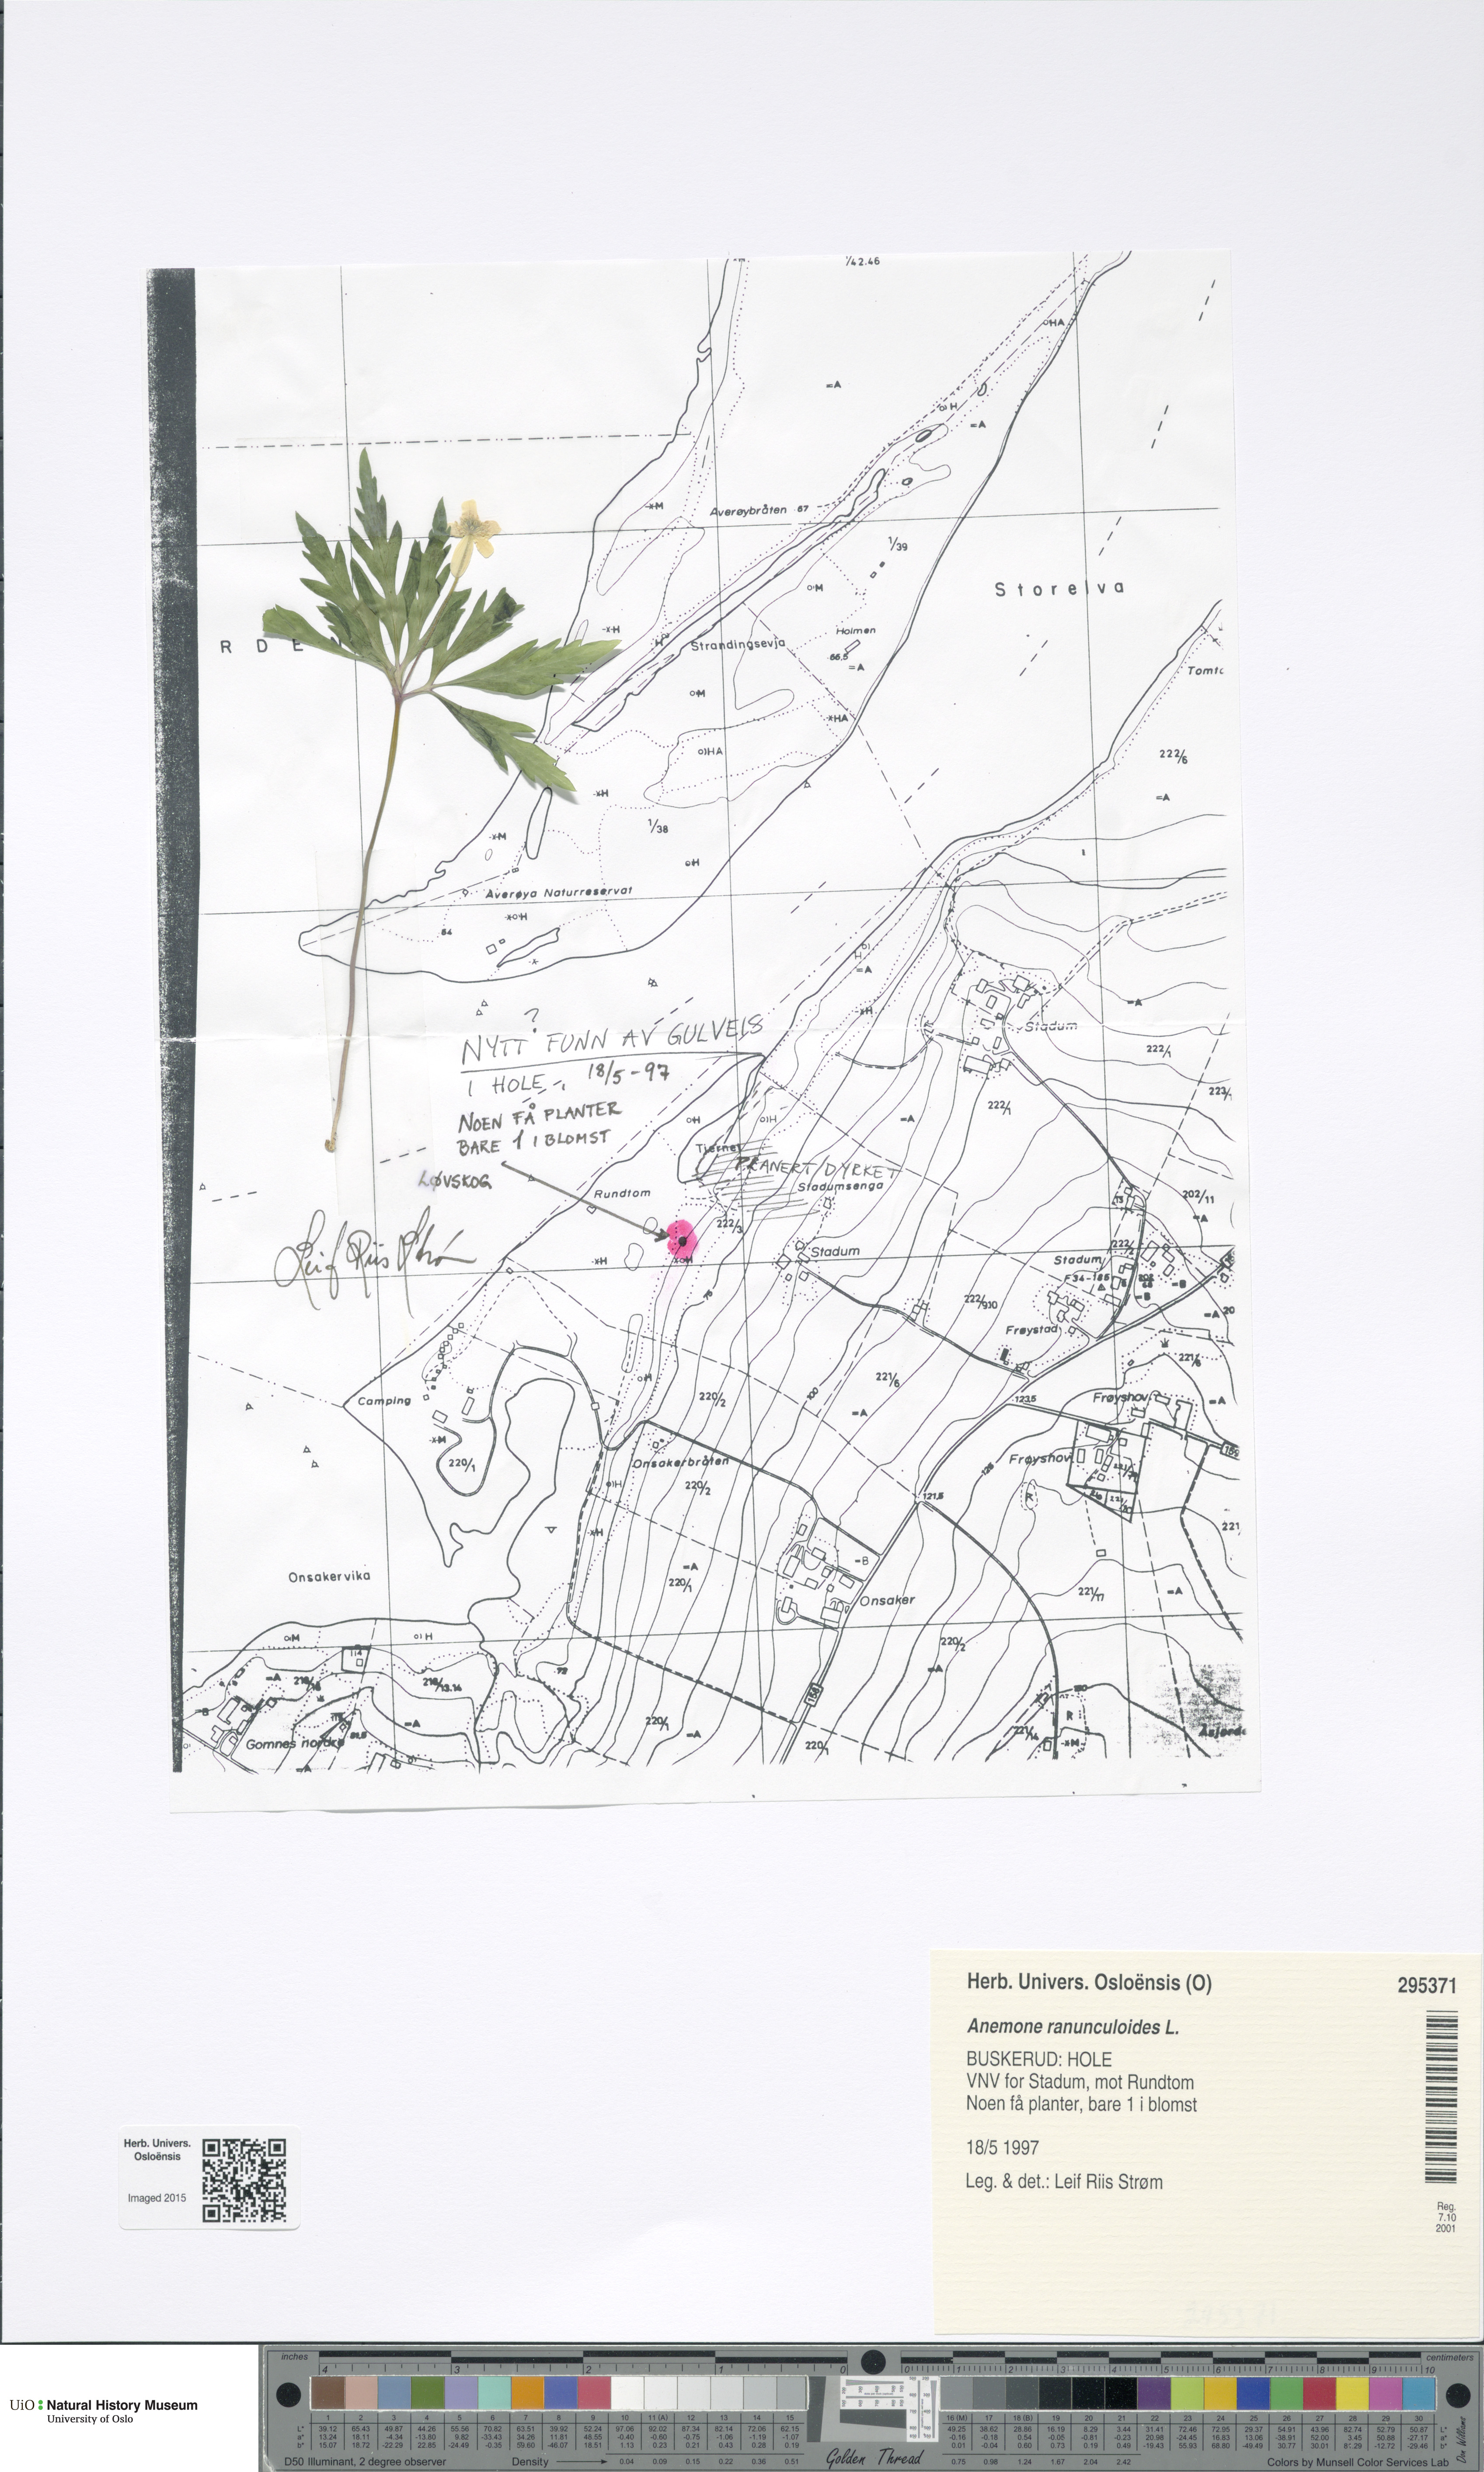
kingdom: Plantae
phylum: Tracheophyta
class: Magnoliopsida
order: Ranunculales
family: Ranunculaceae
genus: Anemone
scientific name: Anemone ranunculoides
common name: Yellow anemone
